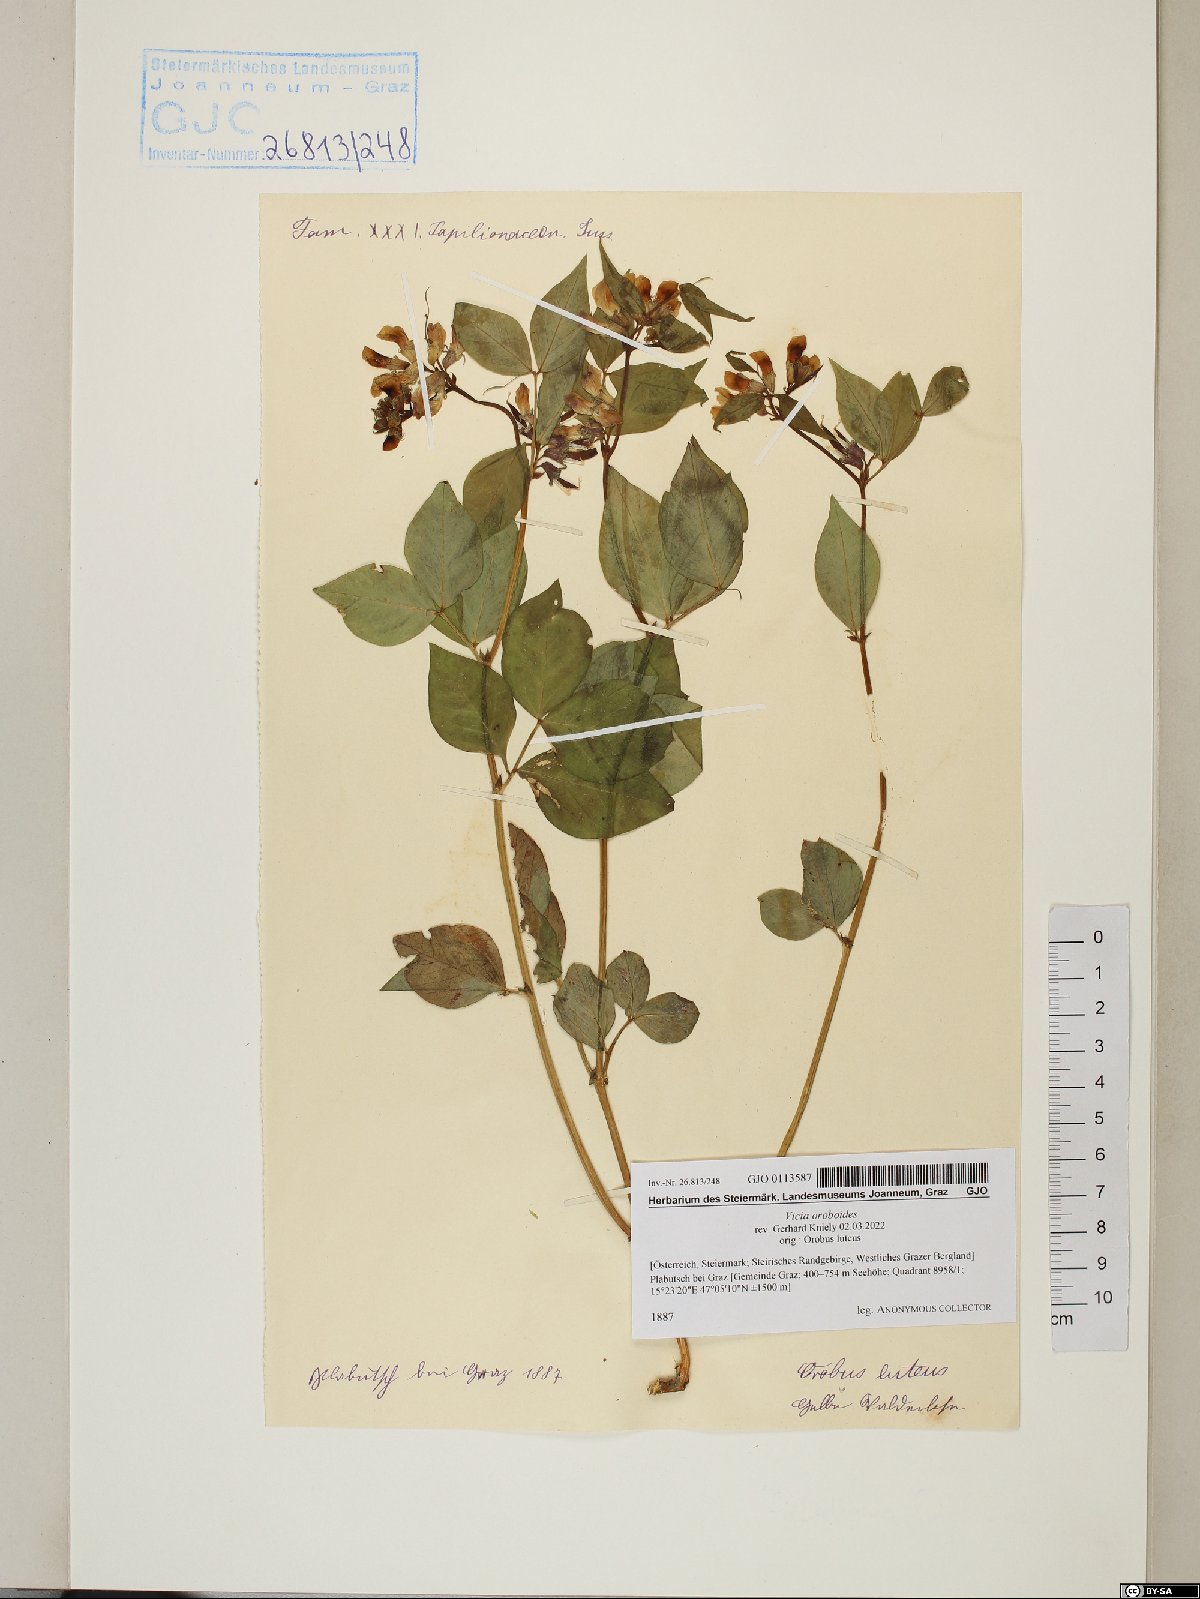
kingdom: Plantae
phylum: Tracheophyta
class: Magnoliopsida
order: Fabales
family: Fabaceae
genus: Vicia
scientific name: Vicia oroboides
